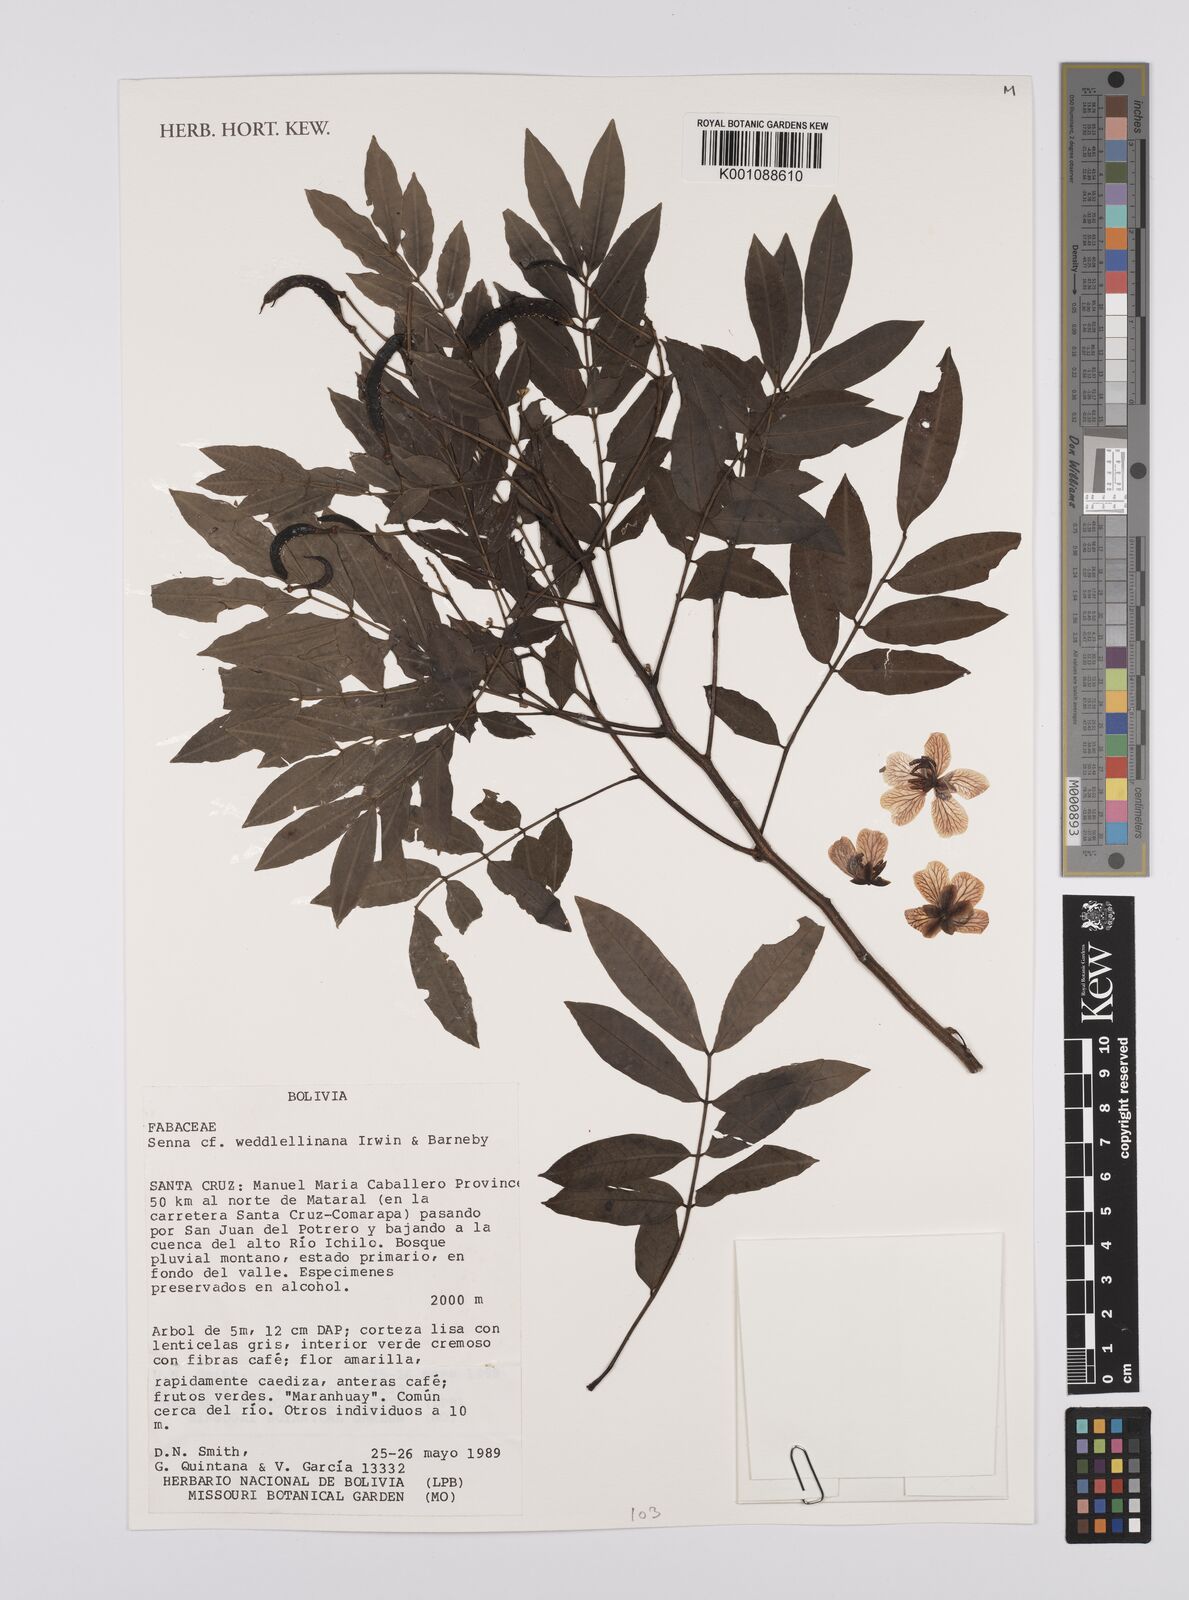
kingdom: Plantae
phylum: Tracheophyta
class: Magnoliopsida
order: Fabales
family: Fabaceae
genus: Senna
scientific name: Senna
